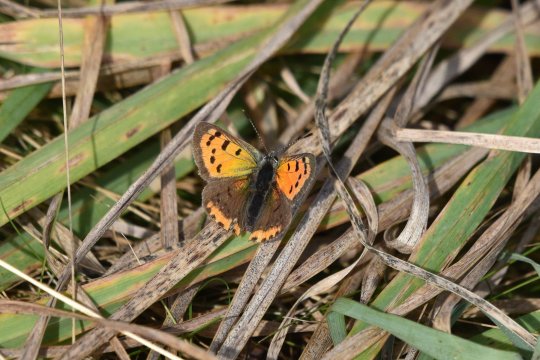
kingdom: Animalia
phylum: Arthropoda
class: Insecta
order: Lepidoptera
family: Lycaenidae
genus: Lycaena
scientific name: Lycaena phlaeas
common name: American Copper
